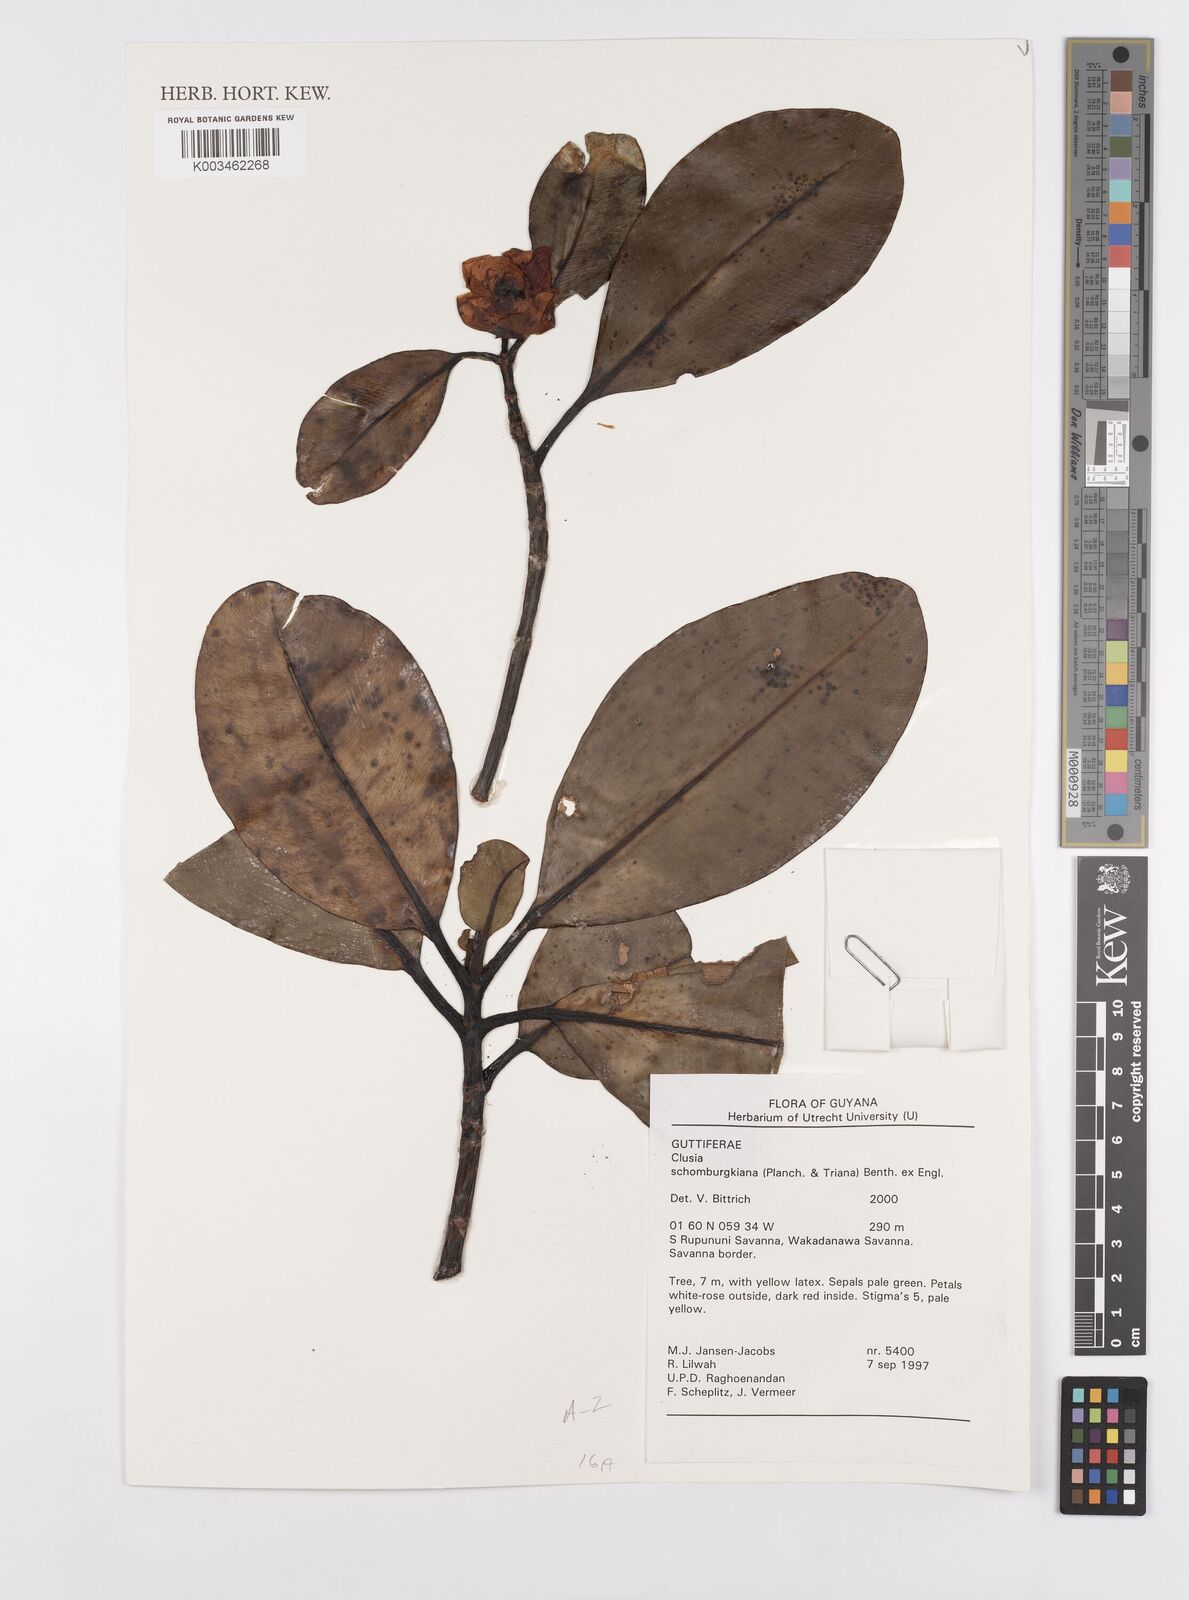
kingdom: Plantae
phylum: Tracheophyta
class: Magnoliopsida
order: Malpighiales
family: Clusiaceae
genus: Clusia
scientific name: Clusia schomburgkiana
